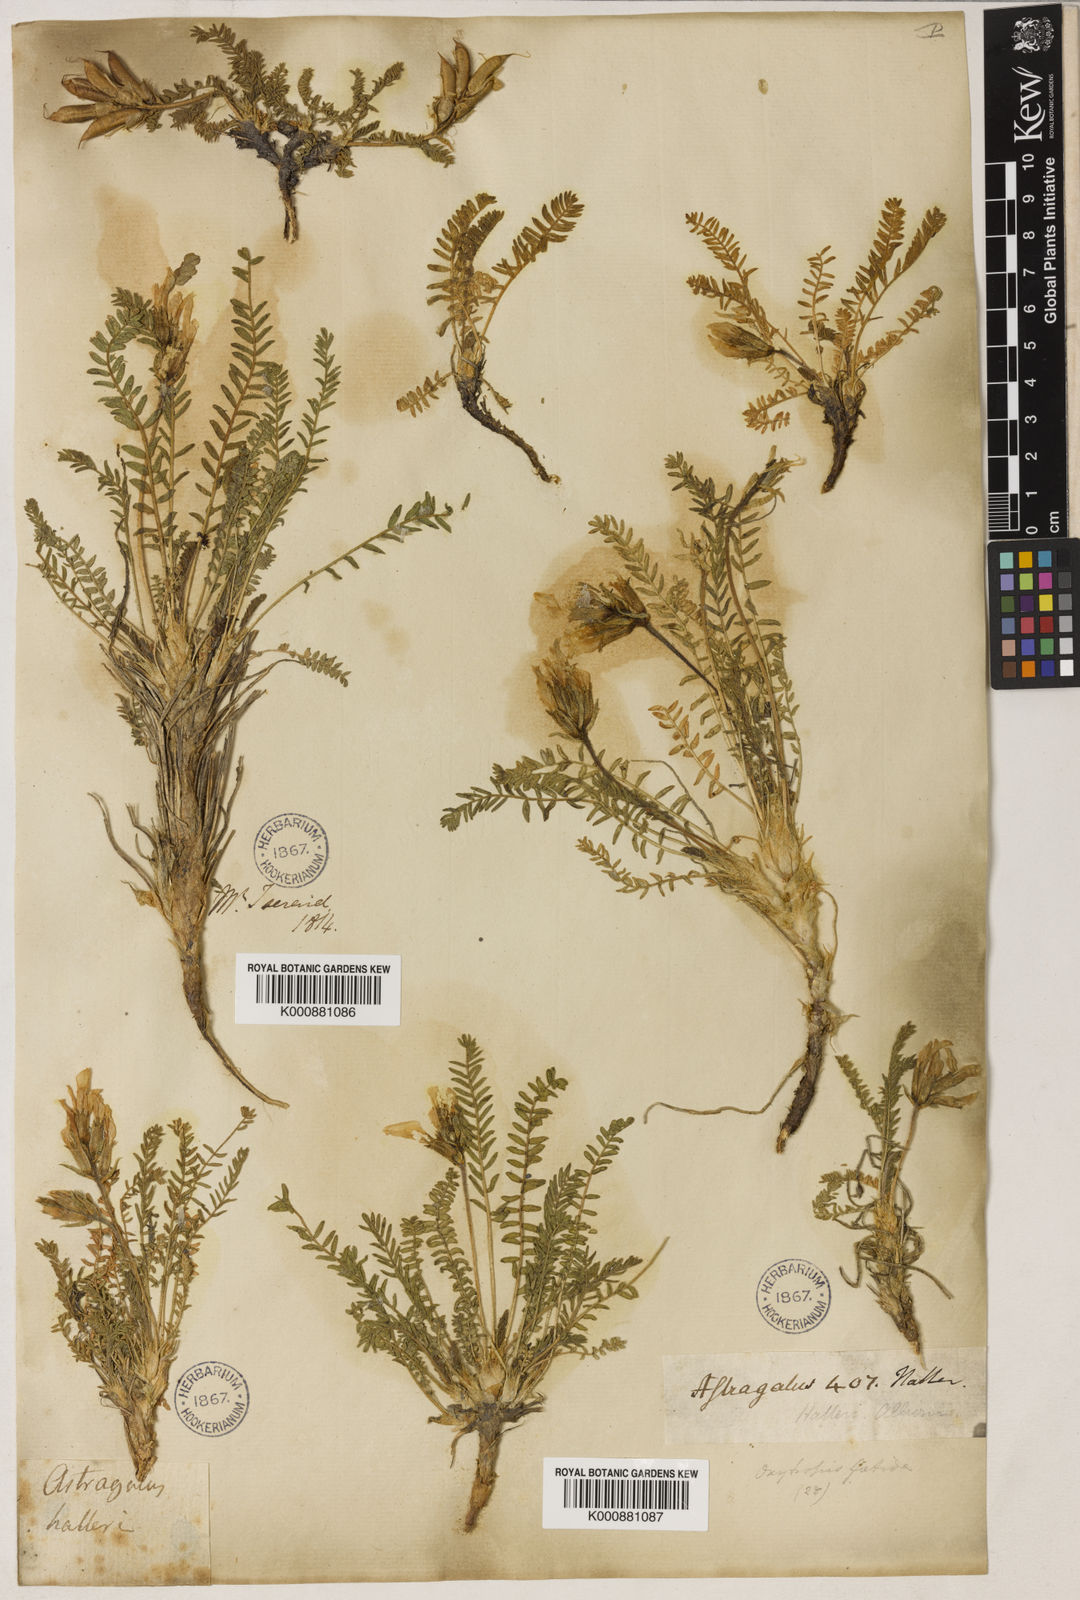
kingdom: Plantae
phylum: Tracheophyta
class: Magnoliopsida
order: Fabales
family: Fabaceae
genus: Oxytropis
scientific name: Oxytropis
